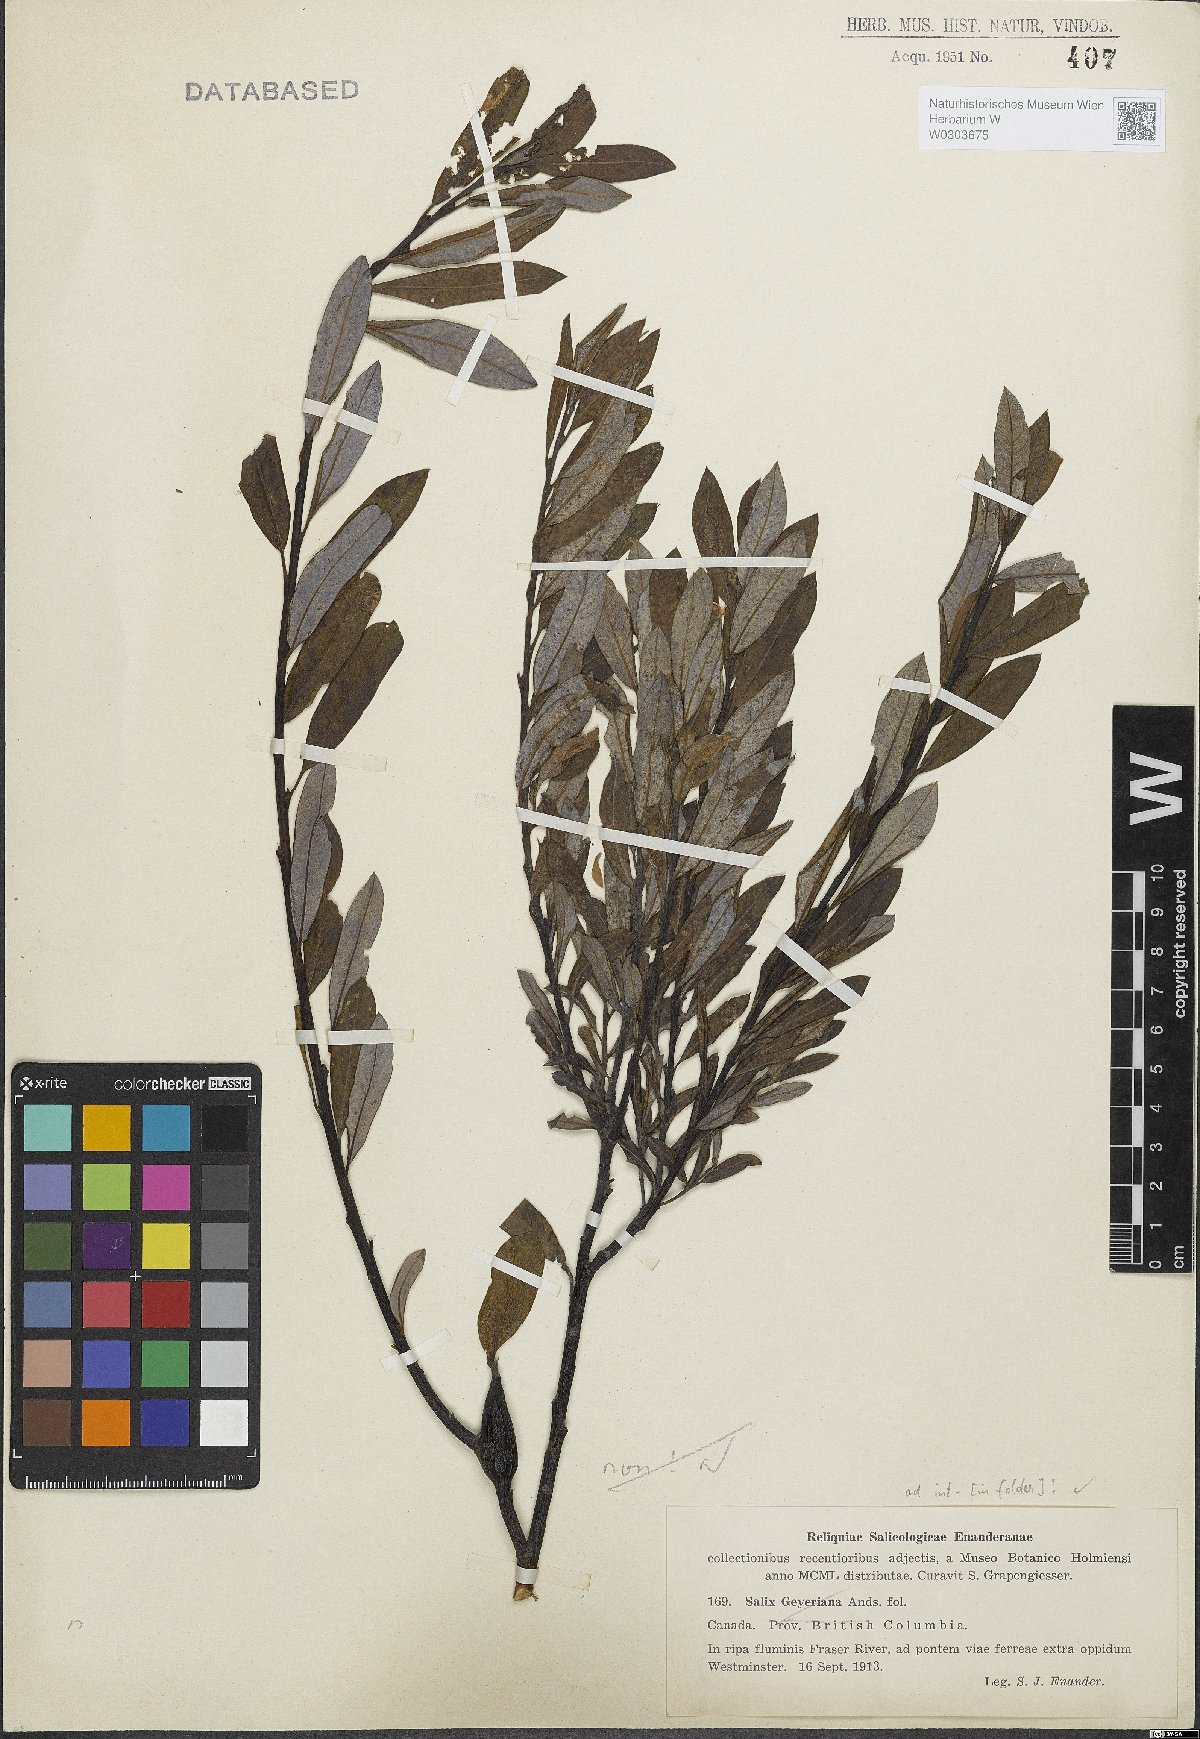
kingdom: Plantae
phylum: Tracheophyta
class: Magnoliopsida
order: Malpighiales
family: Salicaceae
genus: Salix
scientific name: Salix geyeriana
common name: Geyer's willow
